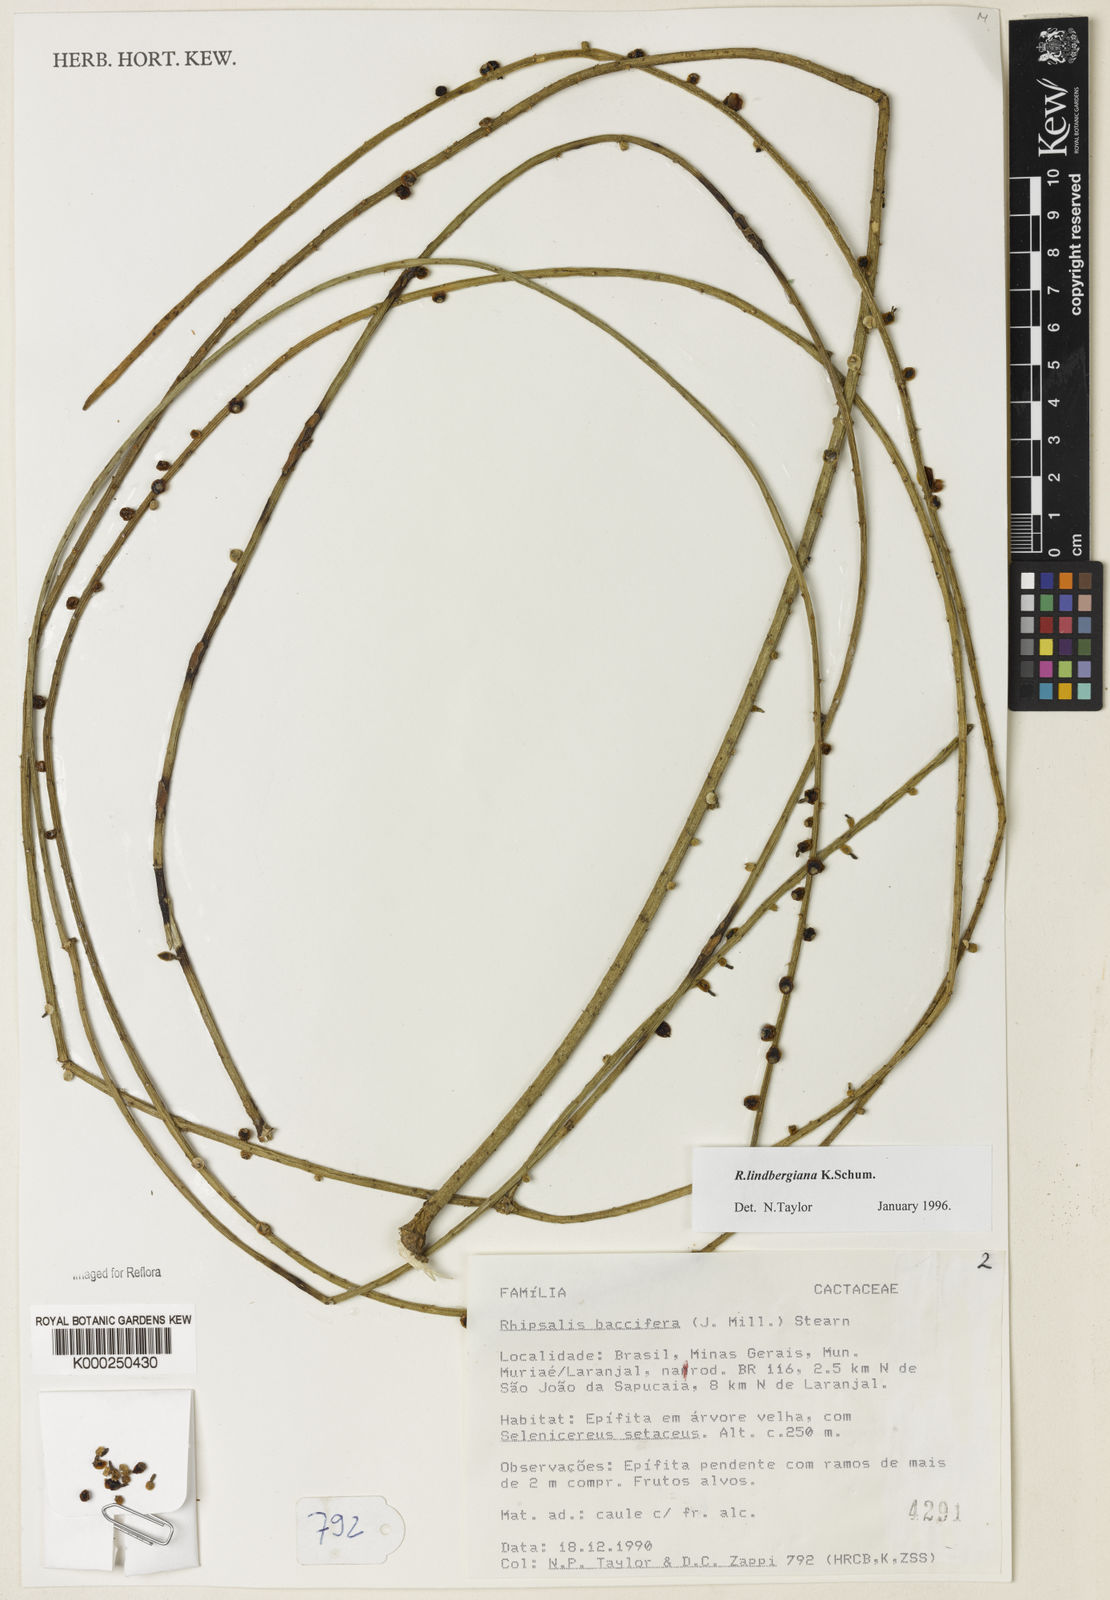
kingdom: Plantae
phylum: Tracheophyta
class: Magnoliopsida
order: Caryophyllales
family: Cactaceae
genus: Rhipsalis
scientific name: Rhipsalis lindbergiana
